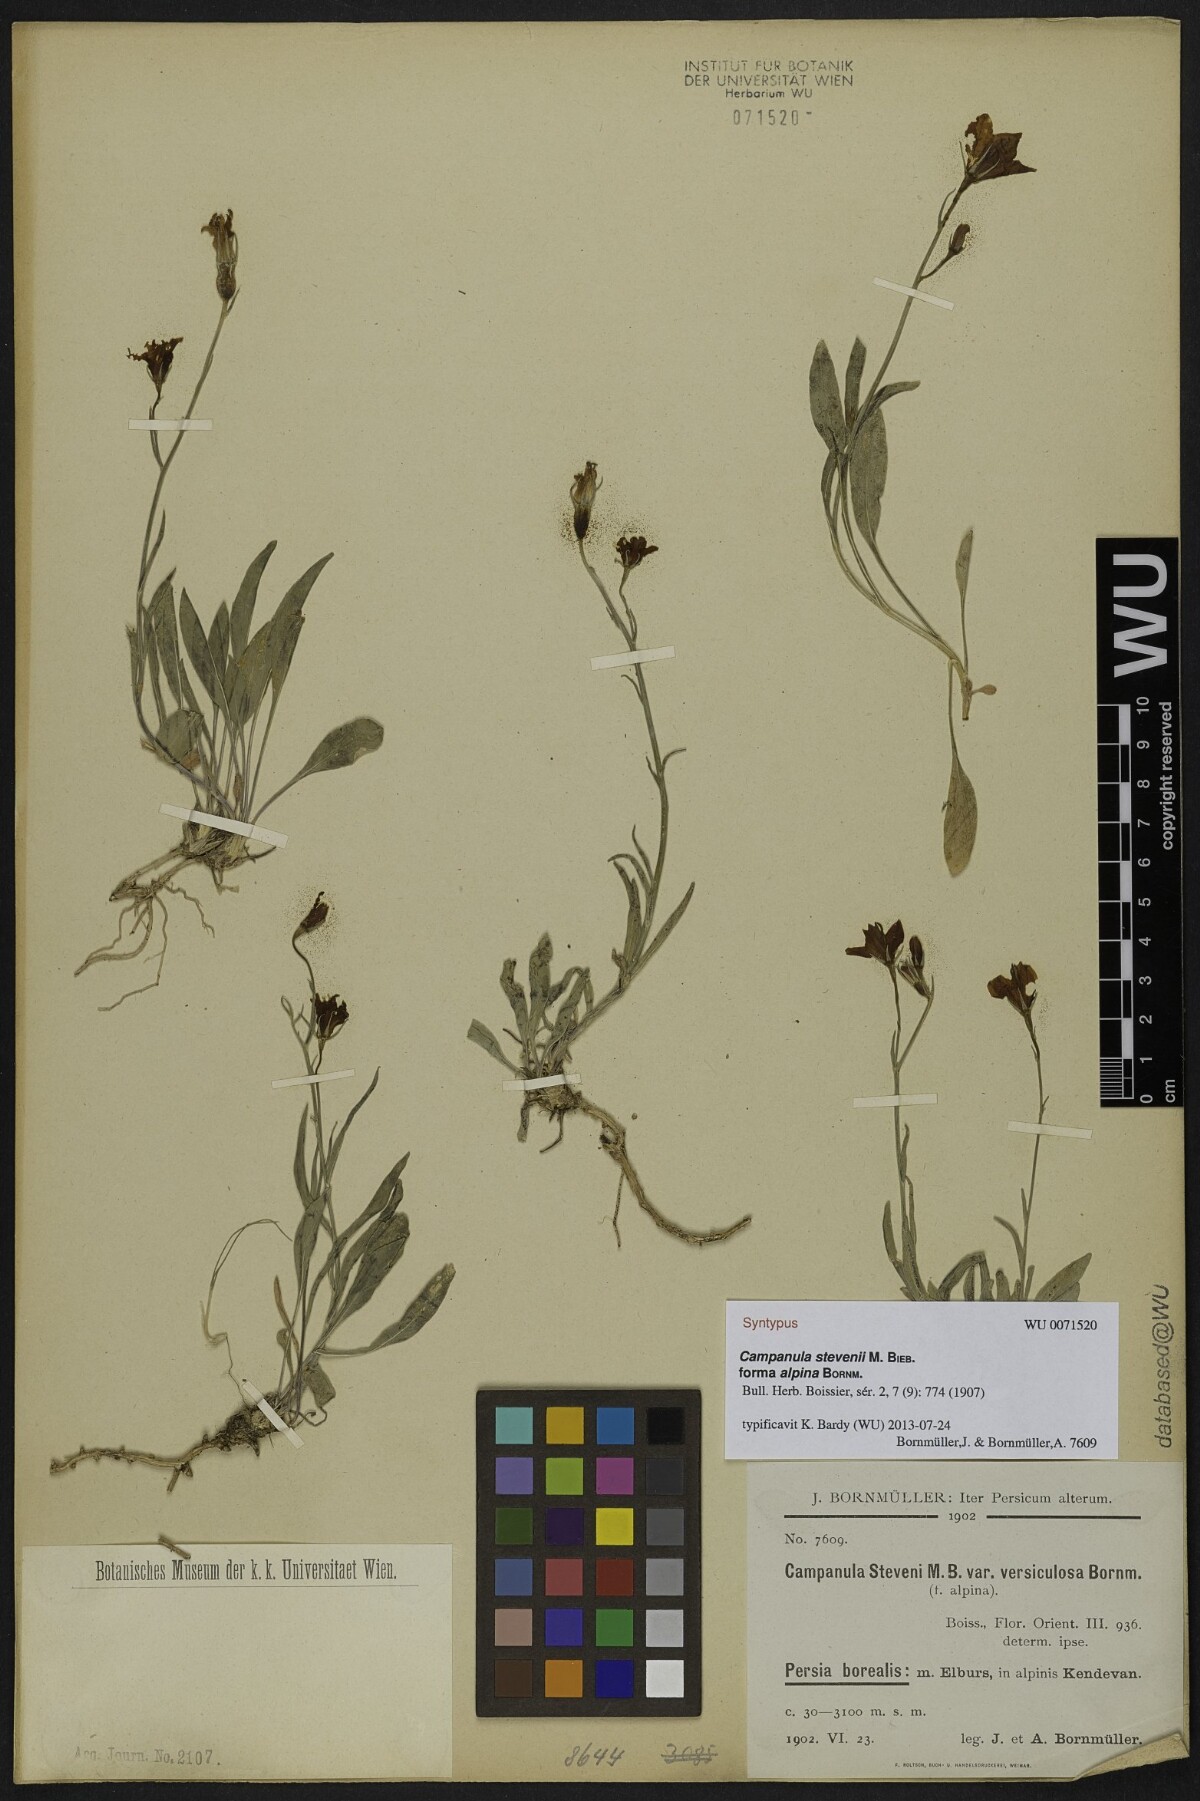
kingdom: Plantae
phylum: Tracheophyta
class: Magnoliopsida
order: Asterales
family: Campanulaceae
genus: Campanula
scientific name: Campanula stevenii
